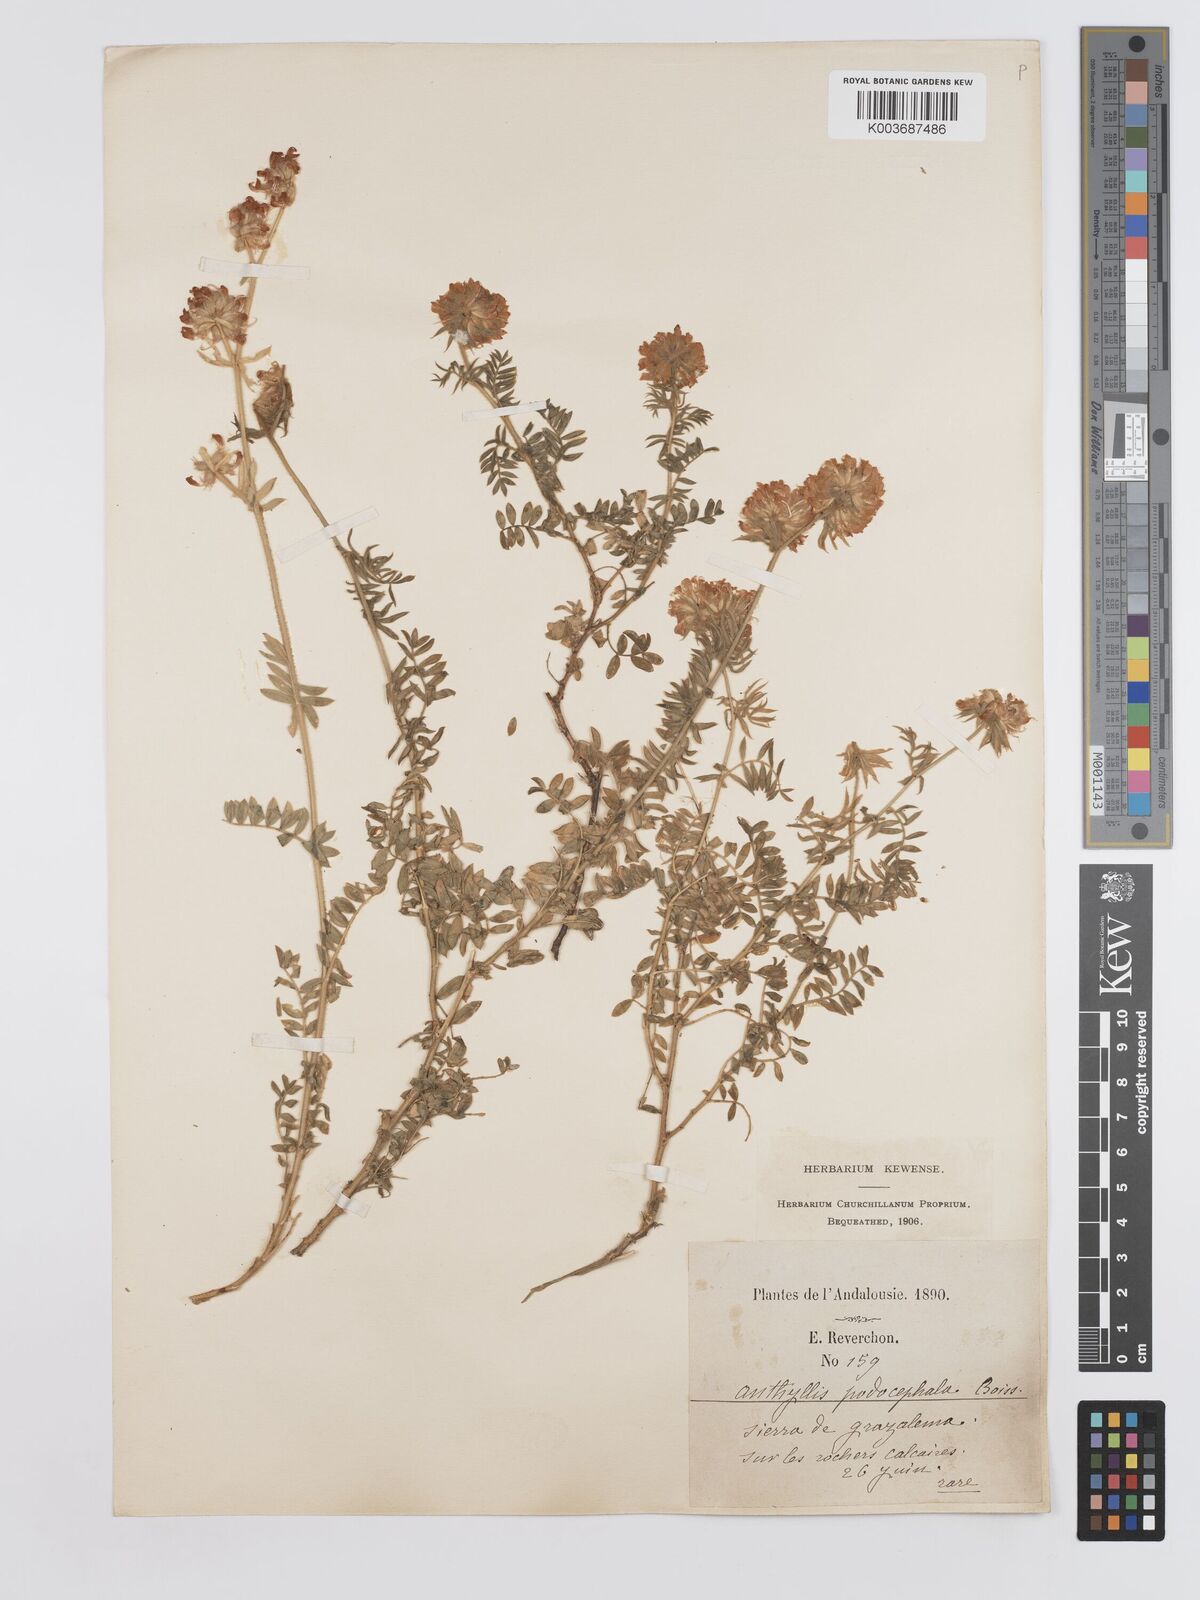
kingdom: Plantae
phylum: Tracheophyta
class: Magnoliopsida
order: Fabales
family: Fabaceae
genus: Anthyllis
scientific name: Anthyllis polycephala
